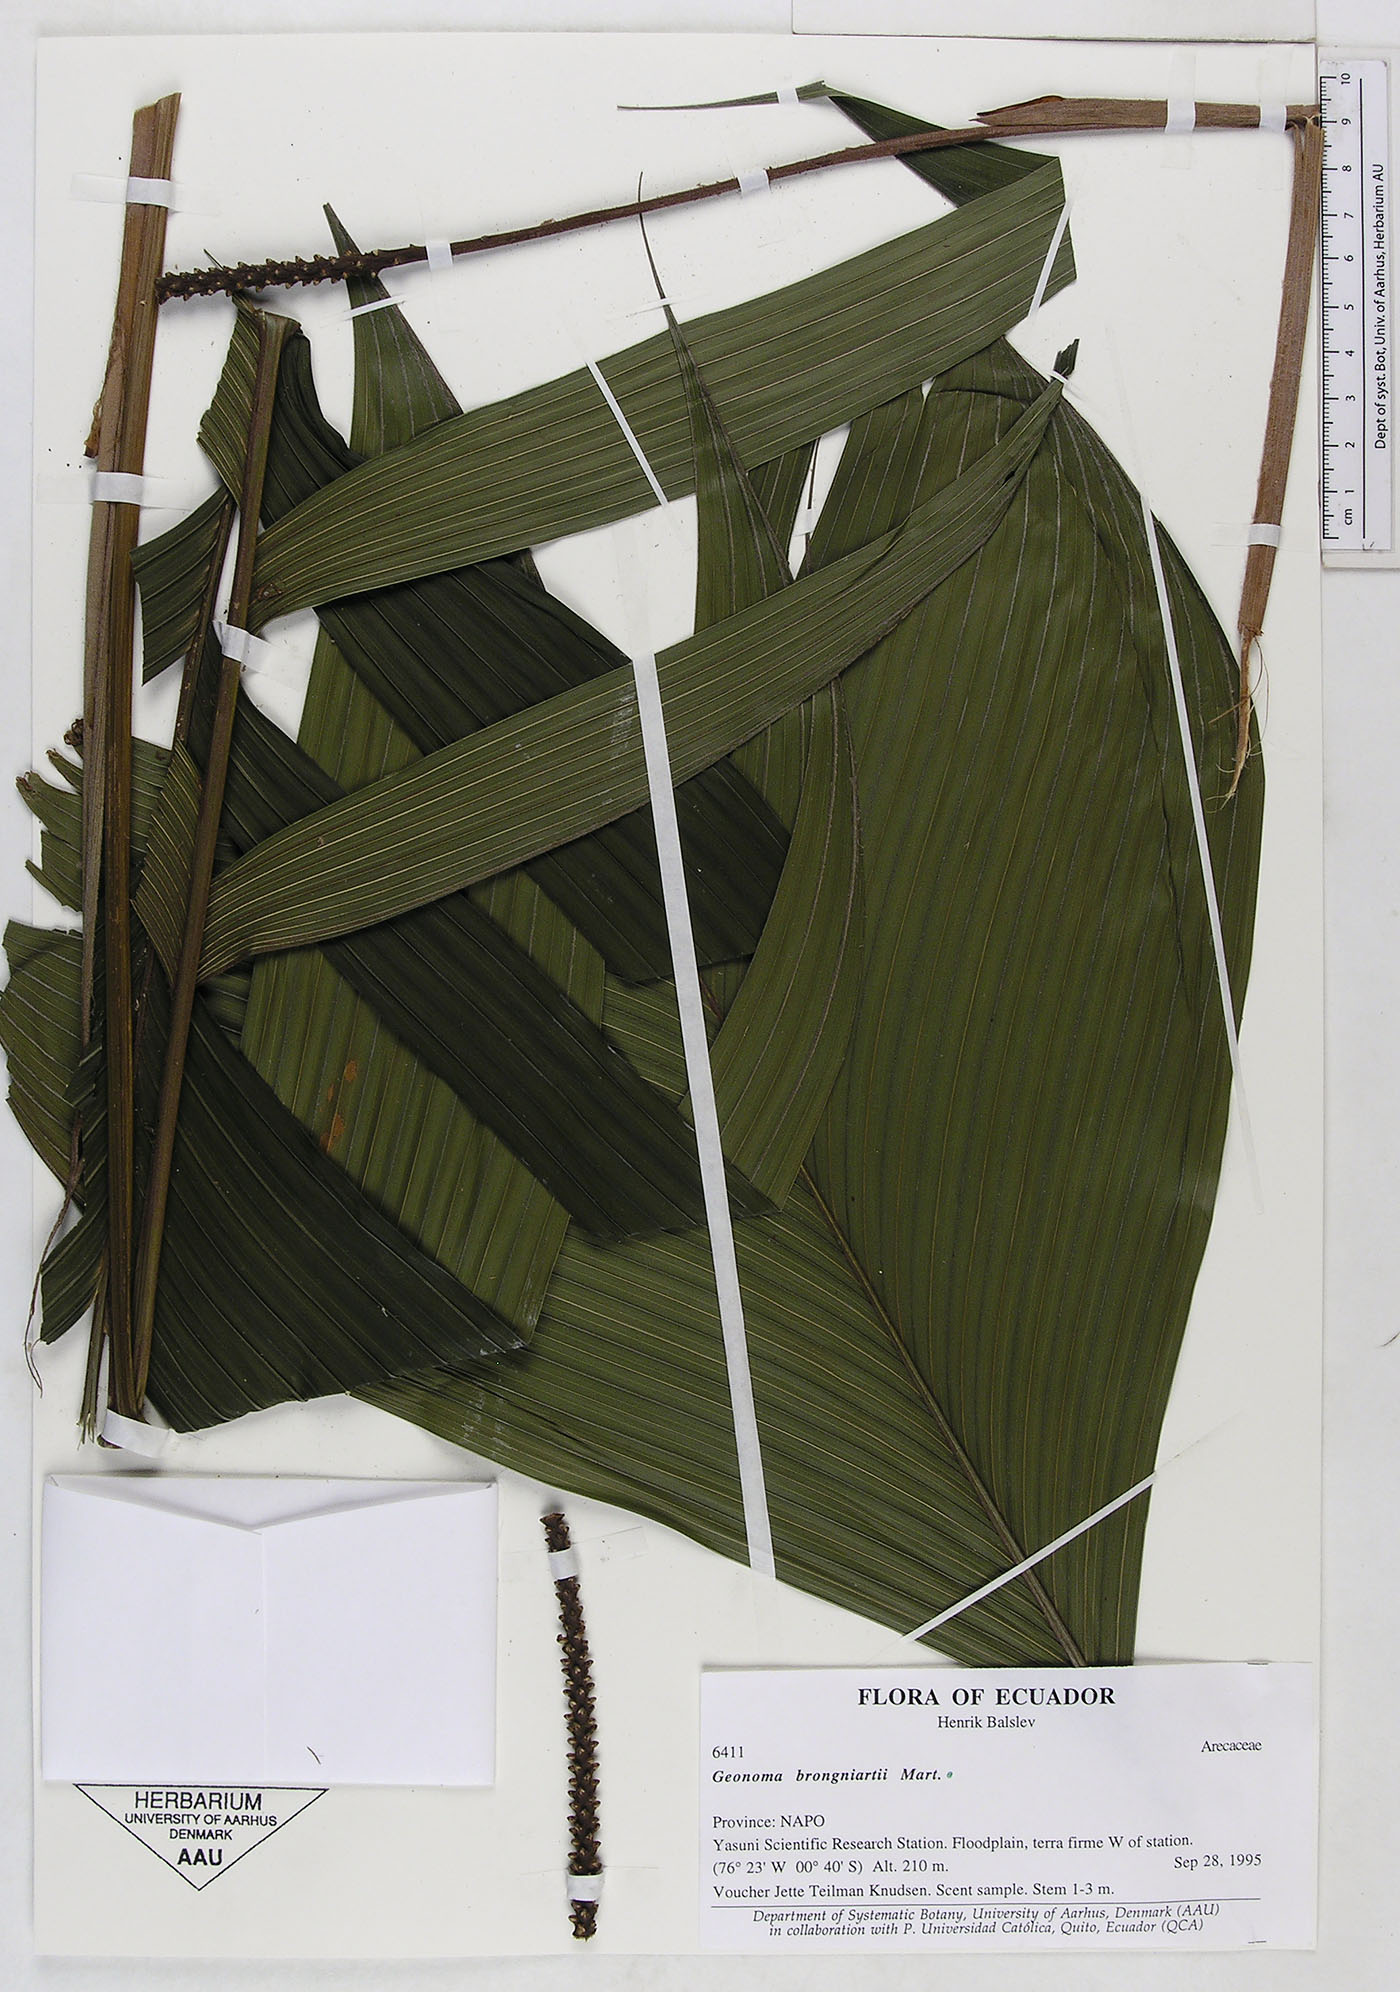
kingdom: Plantae
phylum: Tracheophyta
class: Liliopsida
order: Arecales
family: Arecaceae
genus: Geonoma
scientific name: Geonoma brongniartii
